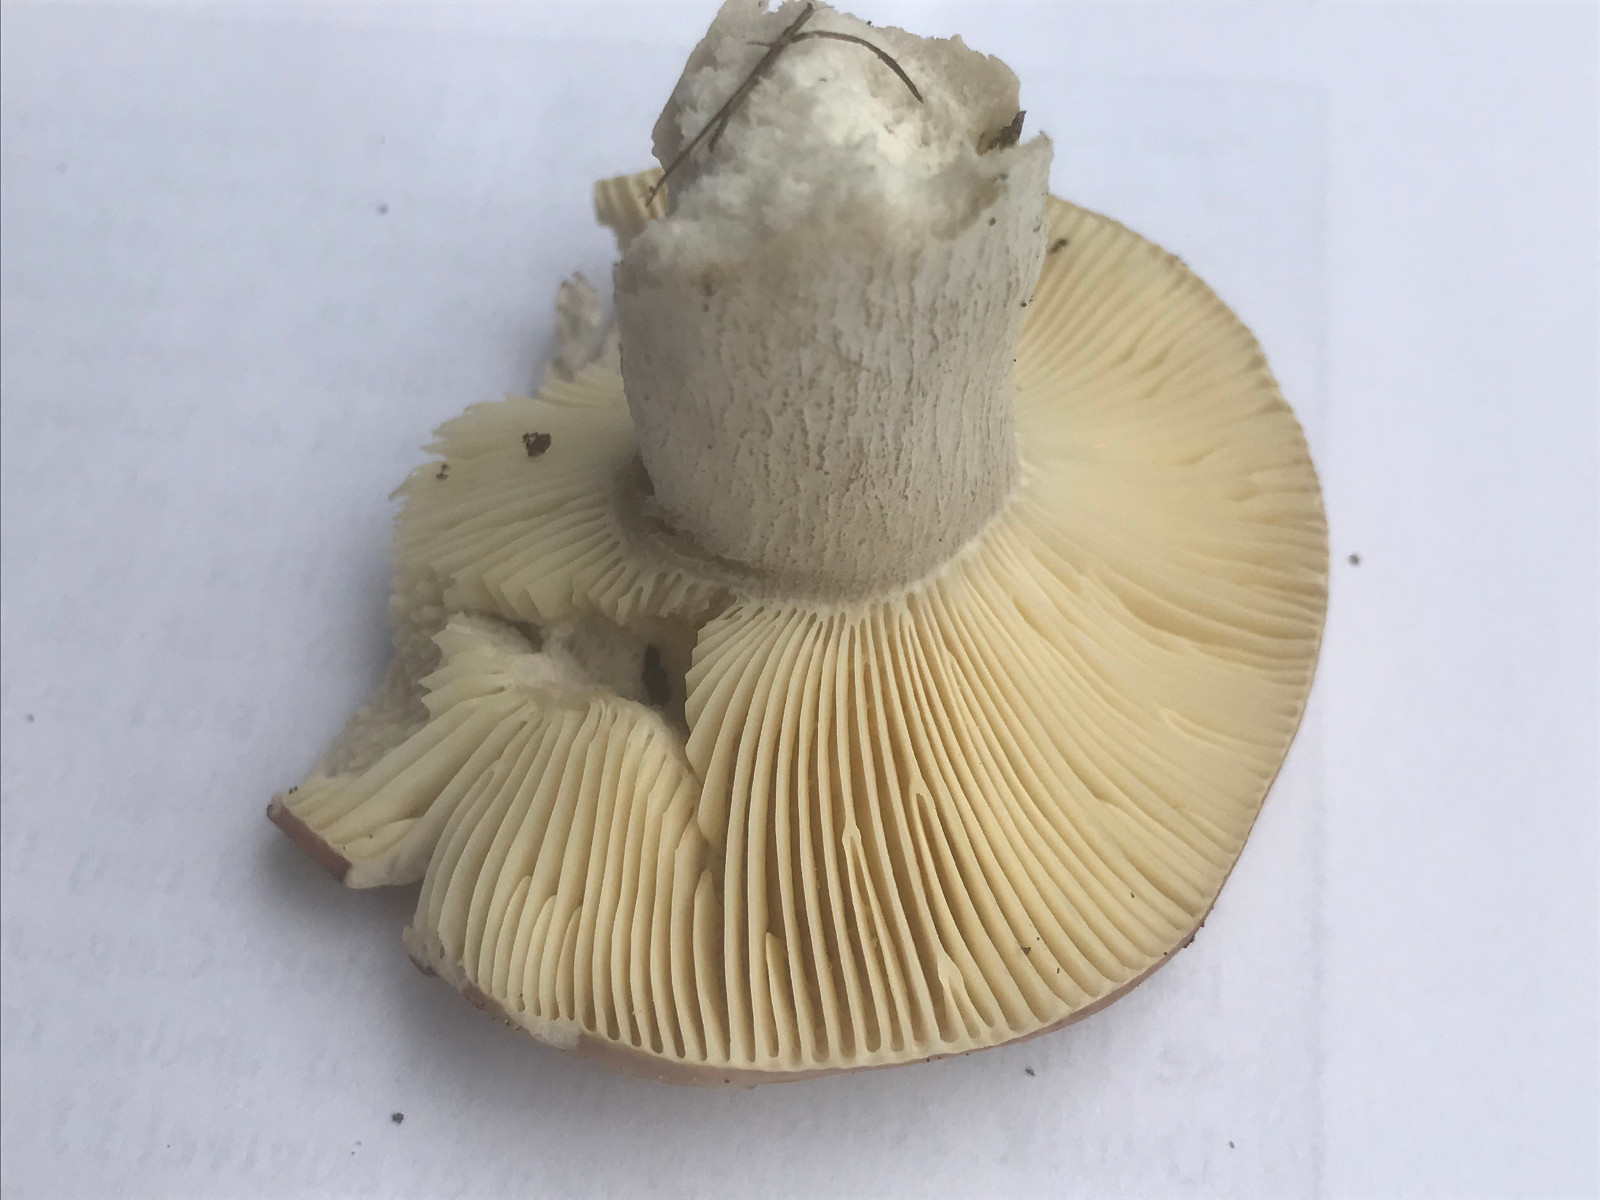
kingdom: Fungi
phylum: Basidiomycota
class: Agaricomycetes
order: Russulales
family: Russulaceae
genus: Russula
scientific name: Russula depallens
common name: falmende skørhat
